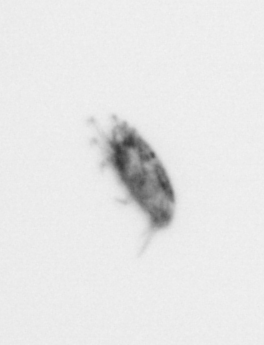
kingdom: Animalia
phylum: Arthropoda
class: Arachnida
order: Trombidiformes
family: Halacaridae
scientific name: Halacaridae
